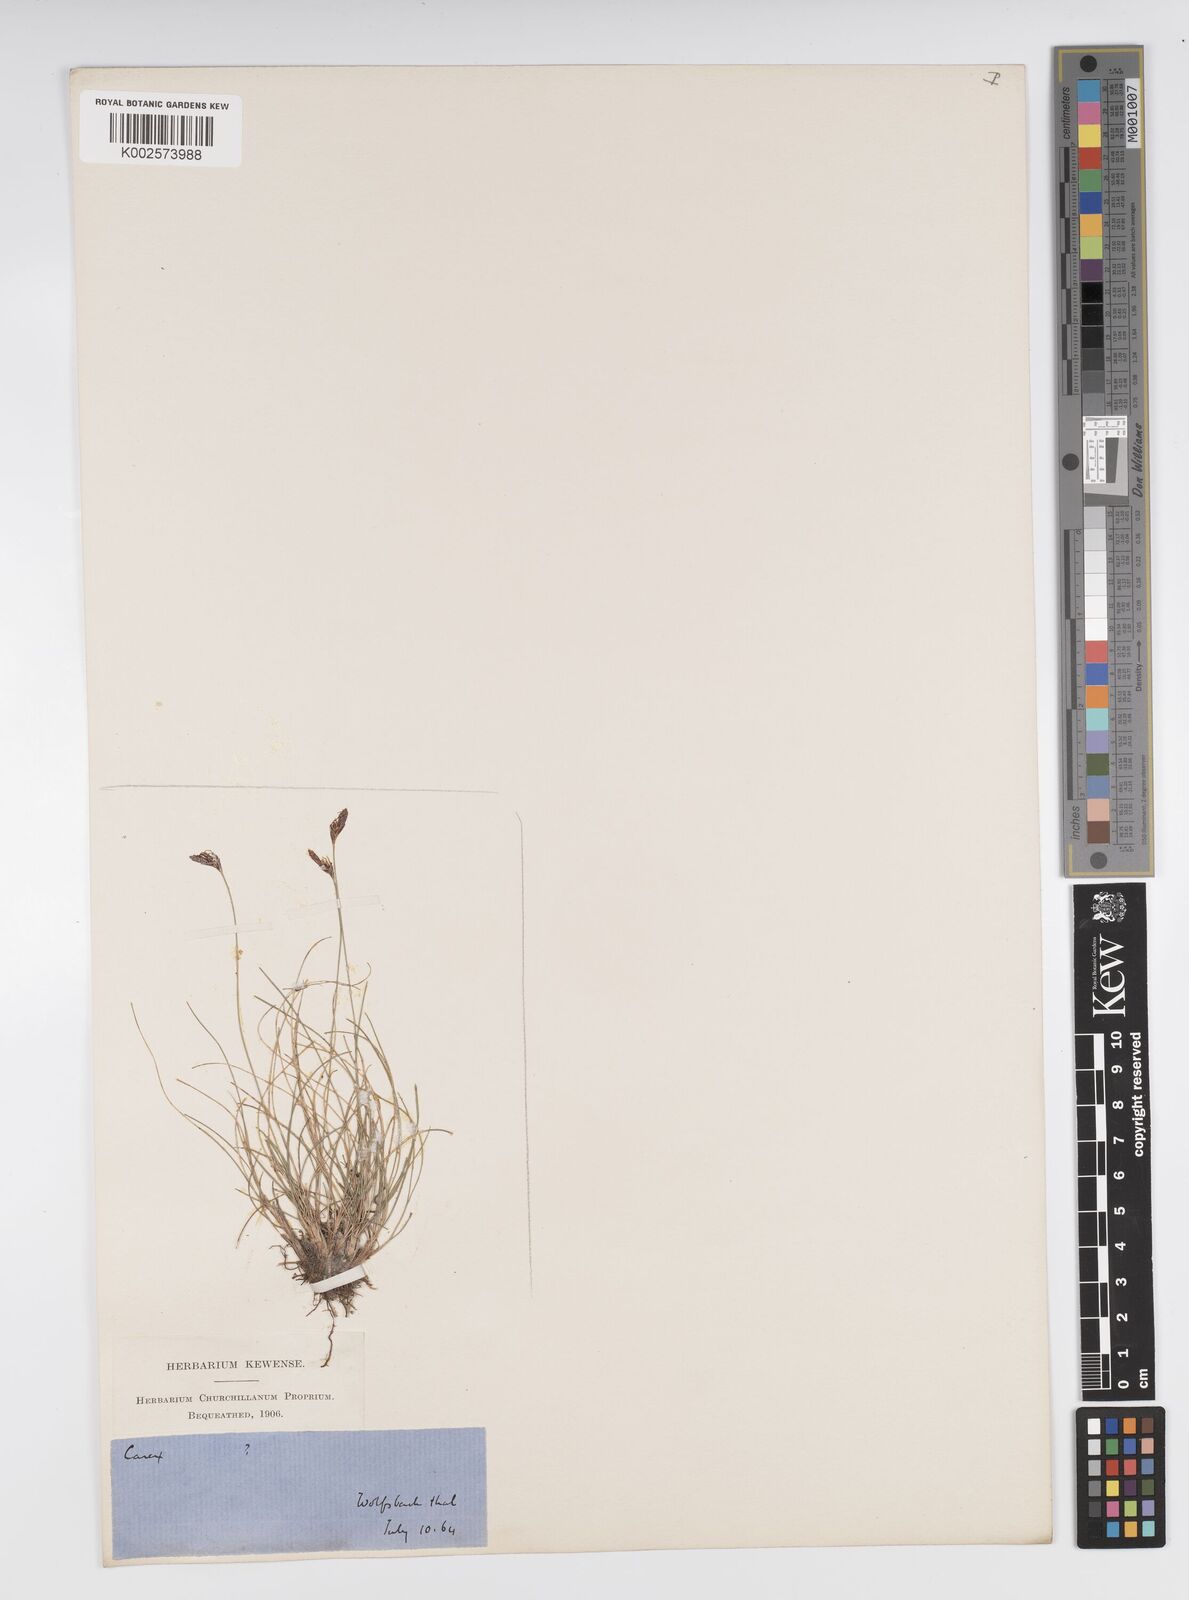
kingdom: Plantae
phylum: Tracheophyta
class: Liliopsida
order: Poales
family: Cyperaceae
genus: Carex
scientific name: Carex mucronata
